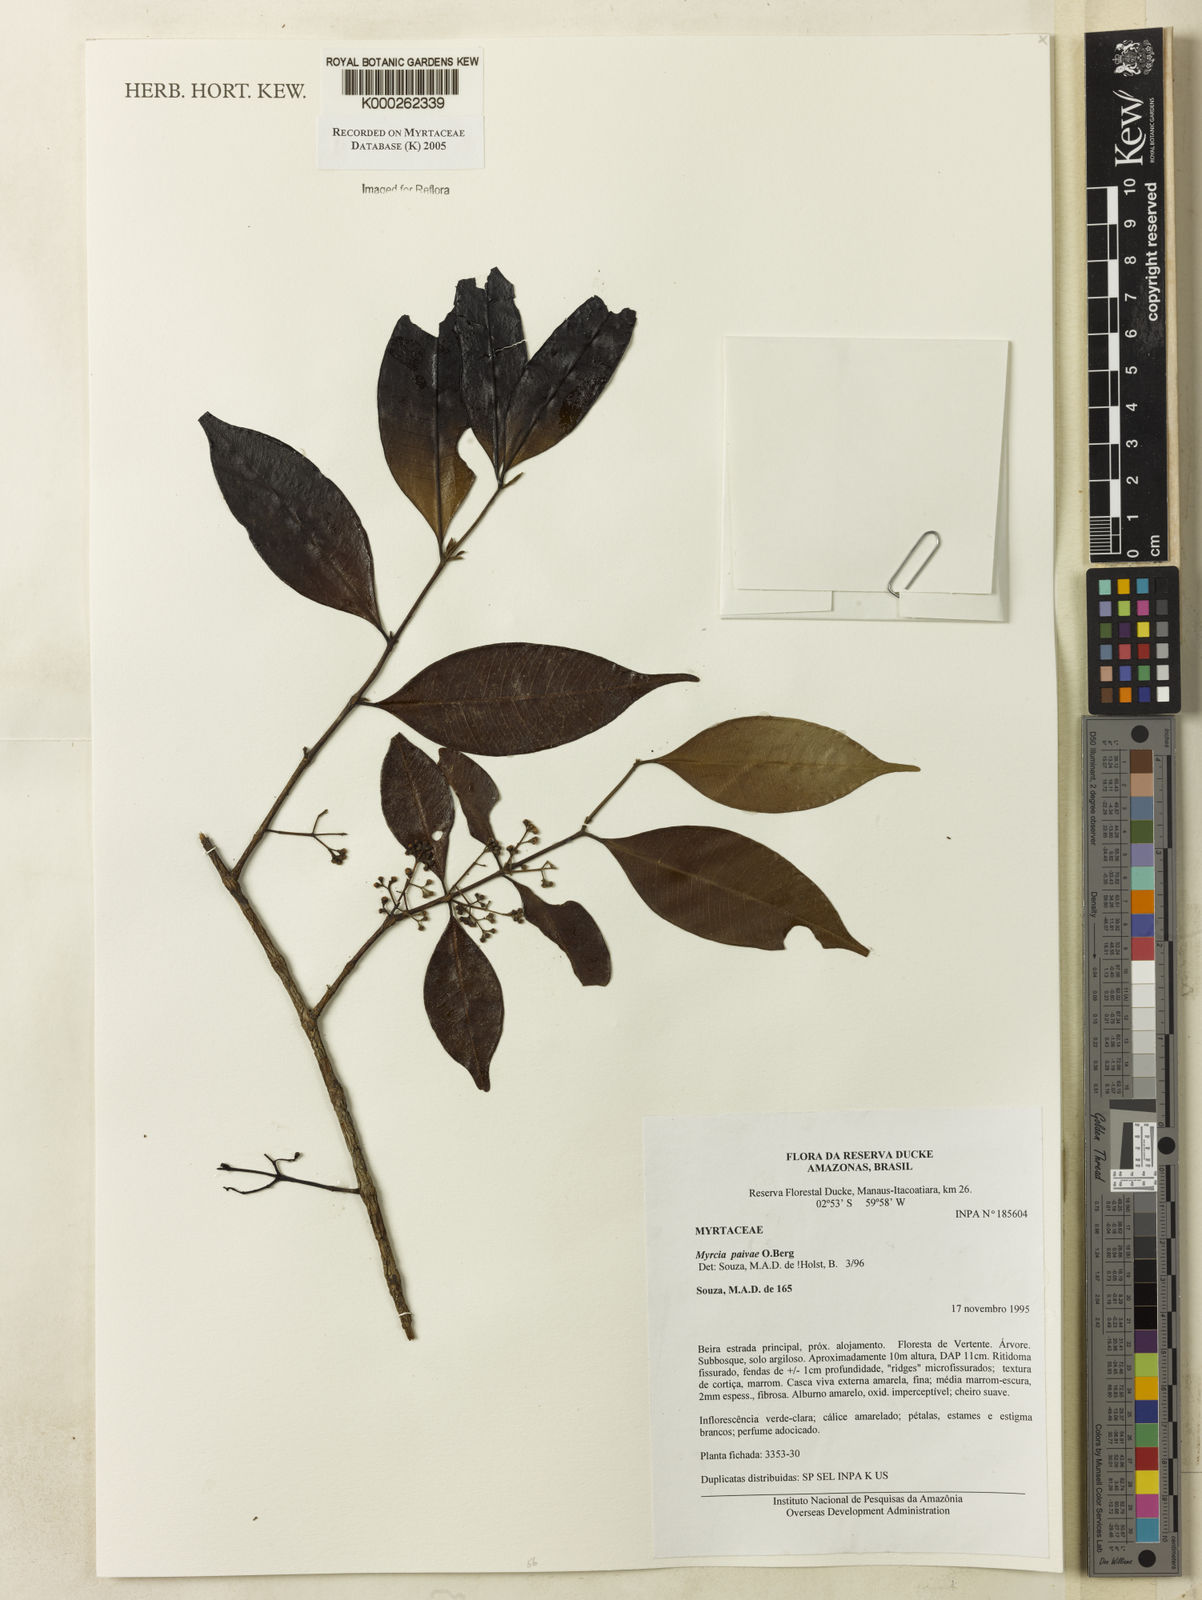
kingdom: Plantae
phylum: Tracheophyta
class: Magnoliopsida
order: Myrtales
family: Myrtaceae
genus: Myrcia
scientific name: Myrcia paivae
